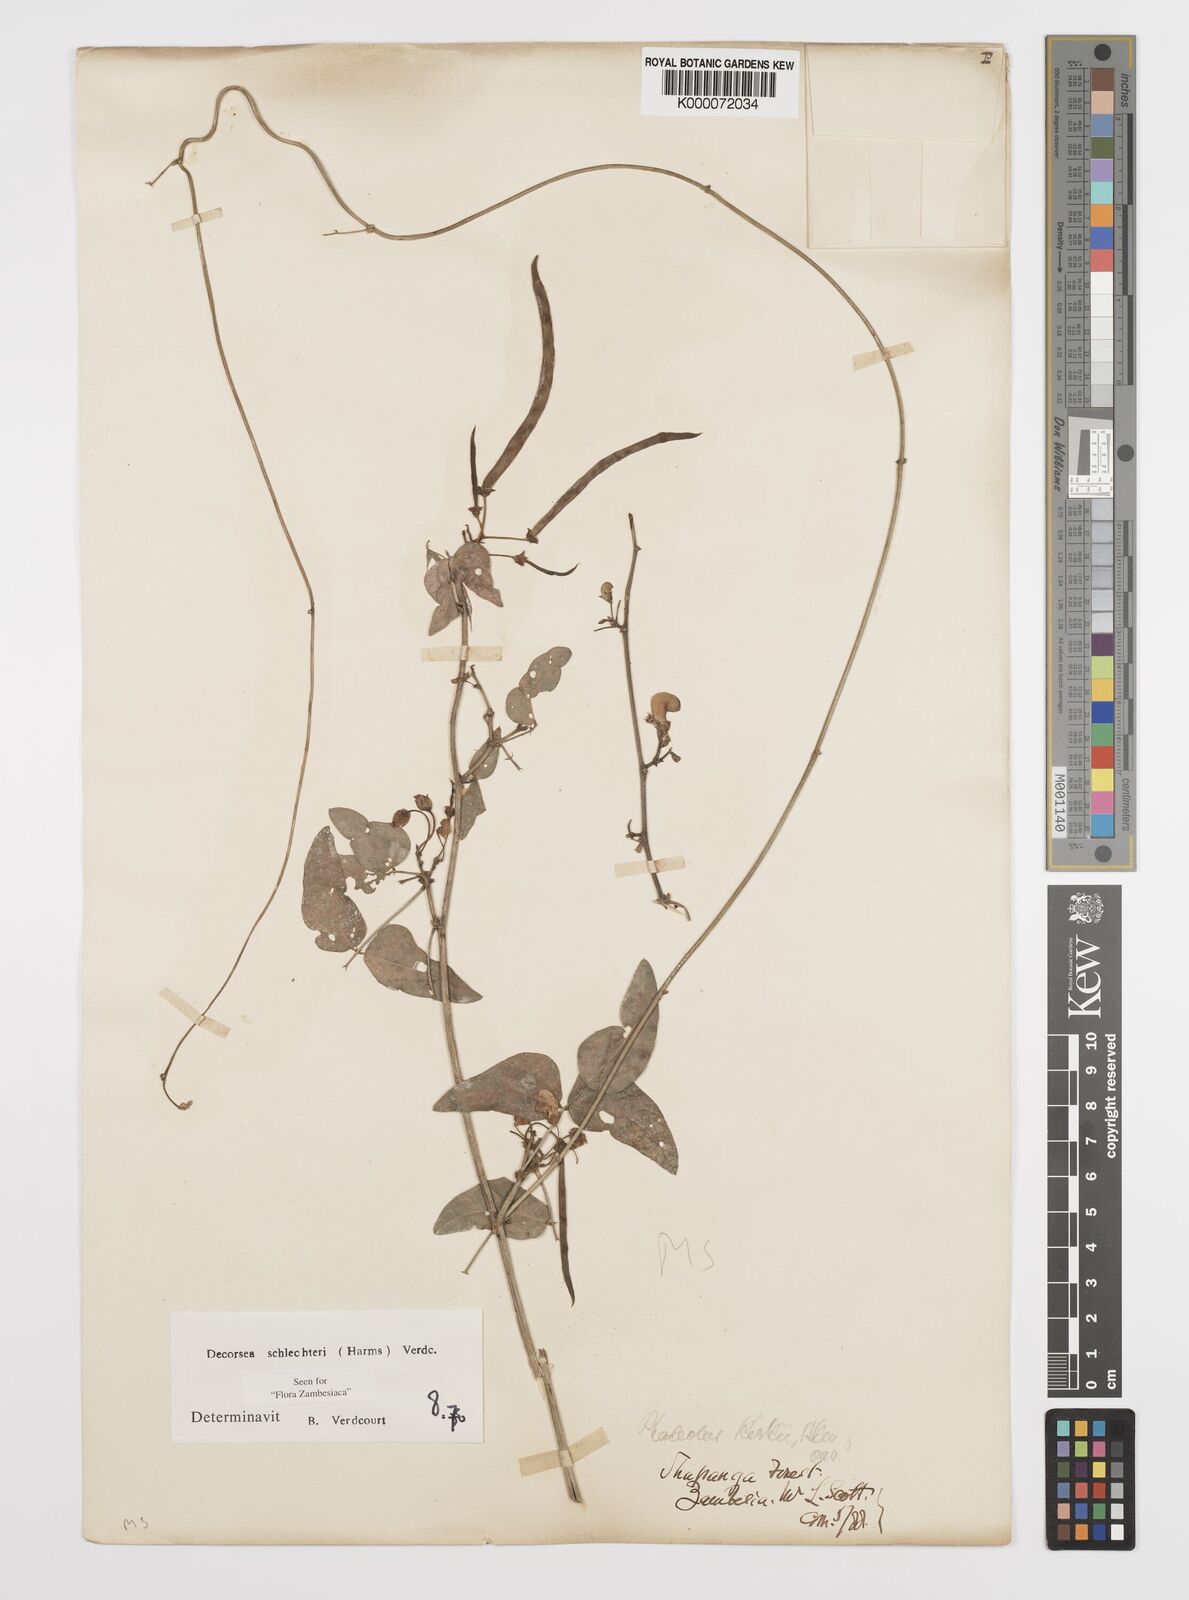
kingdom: Plantae
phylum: Tracheophyta
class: Magnoliopsida
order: Fabales
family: Fabaceae
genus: Decorsea
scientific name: Decorsea schlechteri
